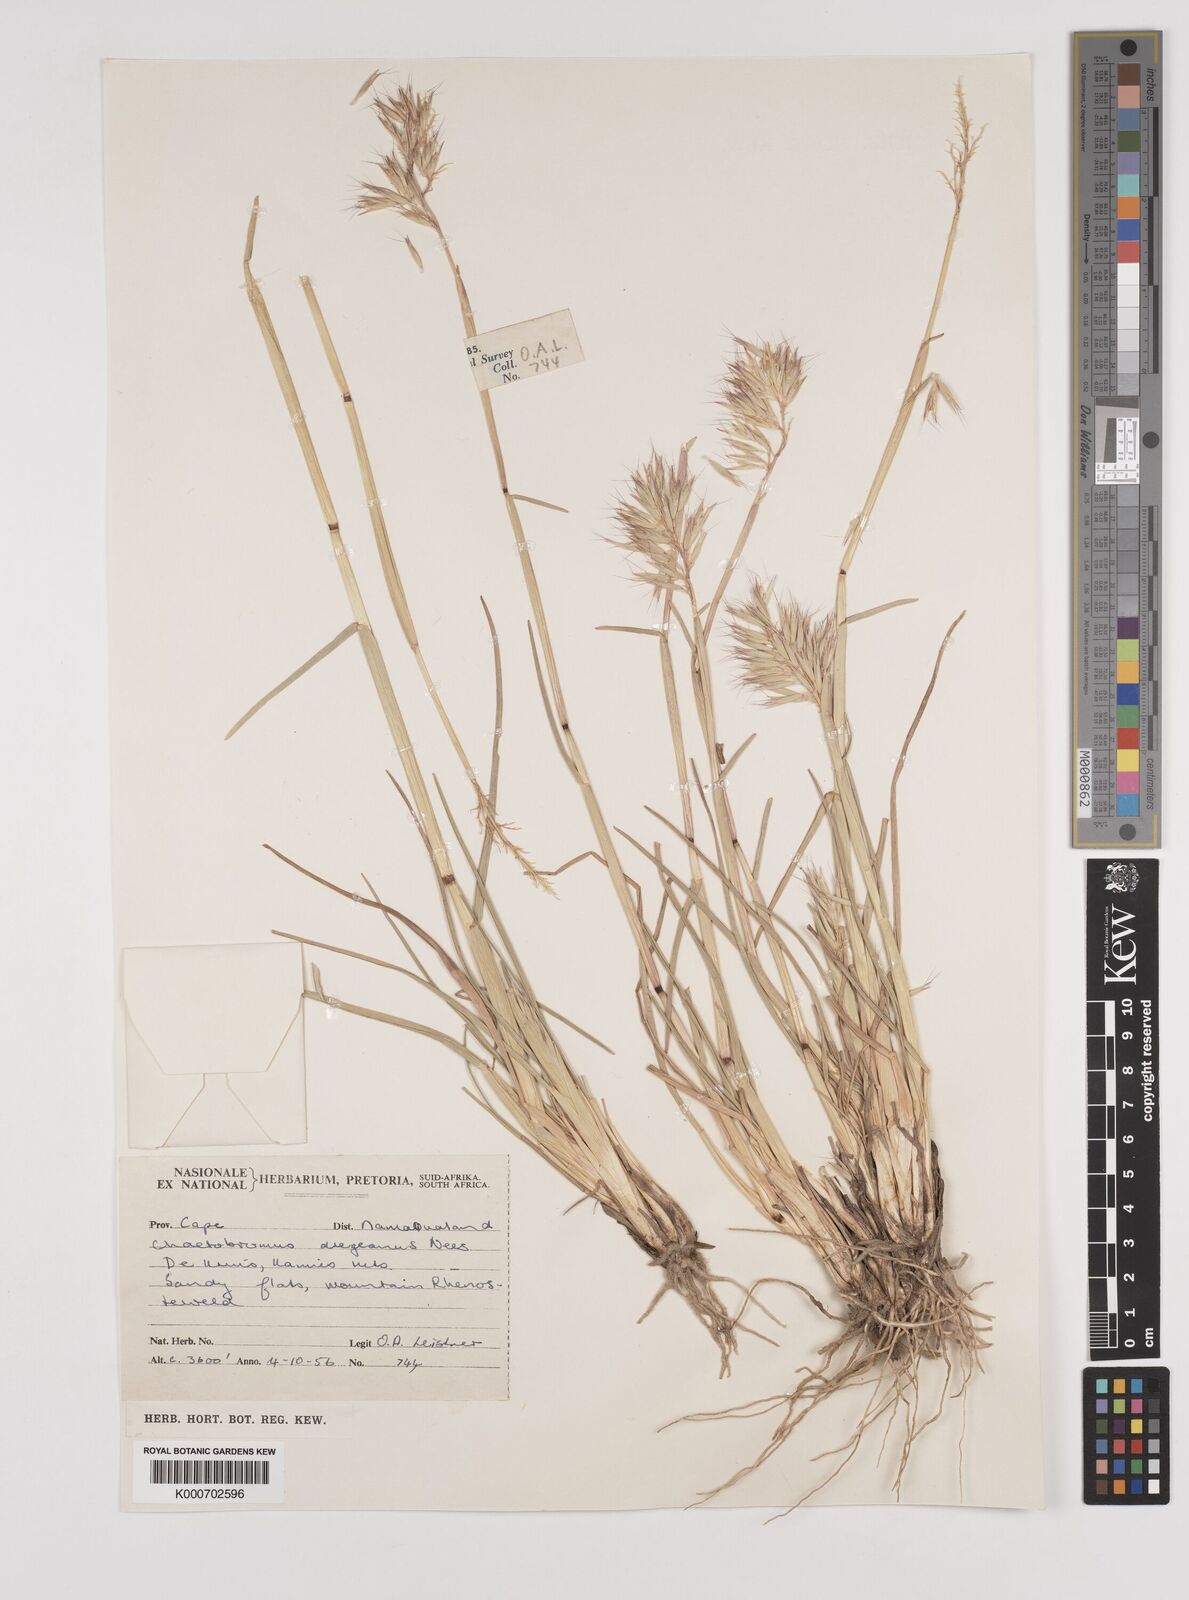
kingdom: Plantae
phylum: Tracheophyta
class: Liliopsida
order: Poales
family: Poaceae
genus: Chaetobromus
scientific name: Chaetobromus involucratus
